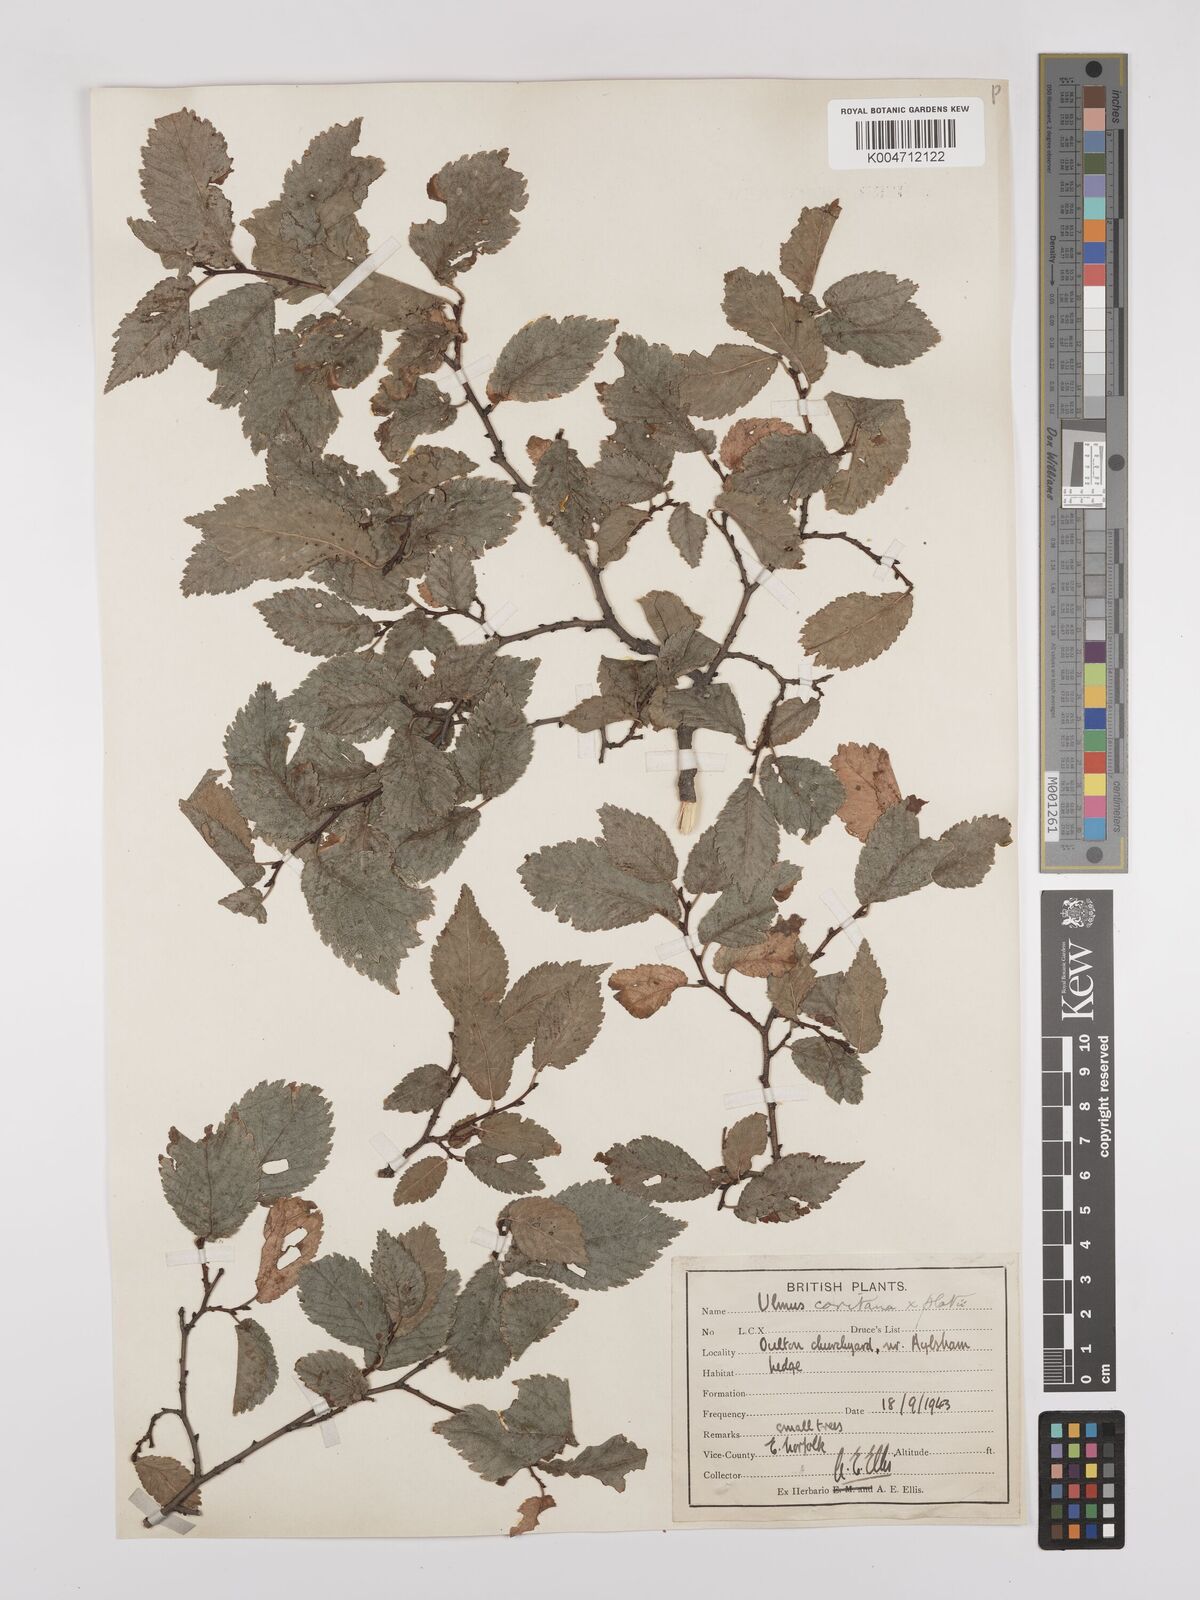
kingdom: Plantae
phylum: Tracheophyta
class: Magnoliopsida
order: Rosales
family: Ulmaceae
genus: Ulmus
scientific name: Ulmus minor
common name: Small-leaved elm
